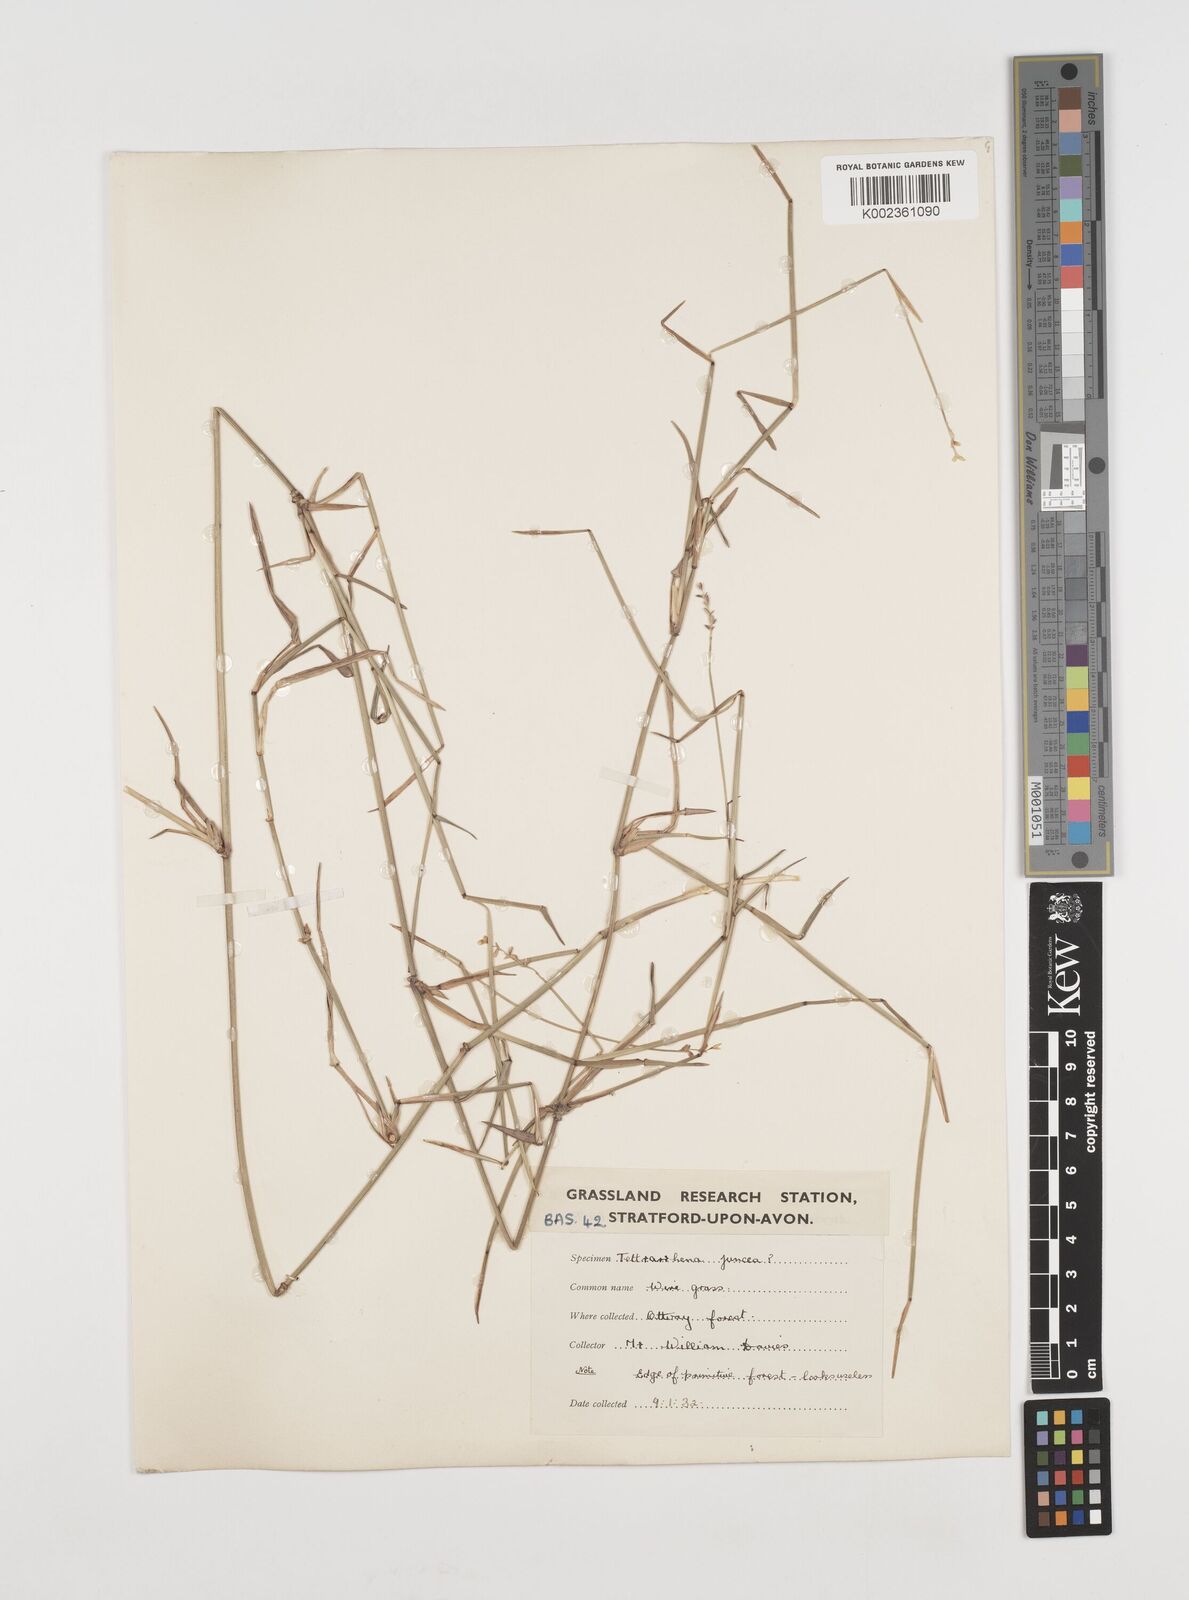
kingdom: Plantae
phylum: Tracheophyta
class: Liliopsida
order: Poales
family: Poaceae
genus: Tetrarrhena
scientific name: Tetrarrhena juncea
